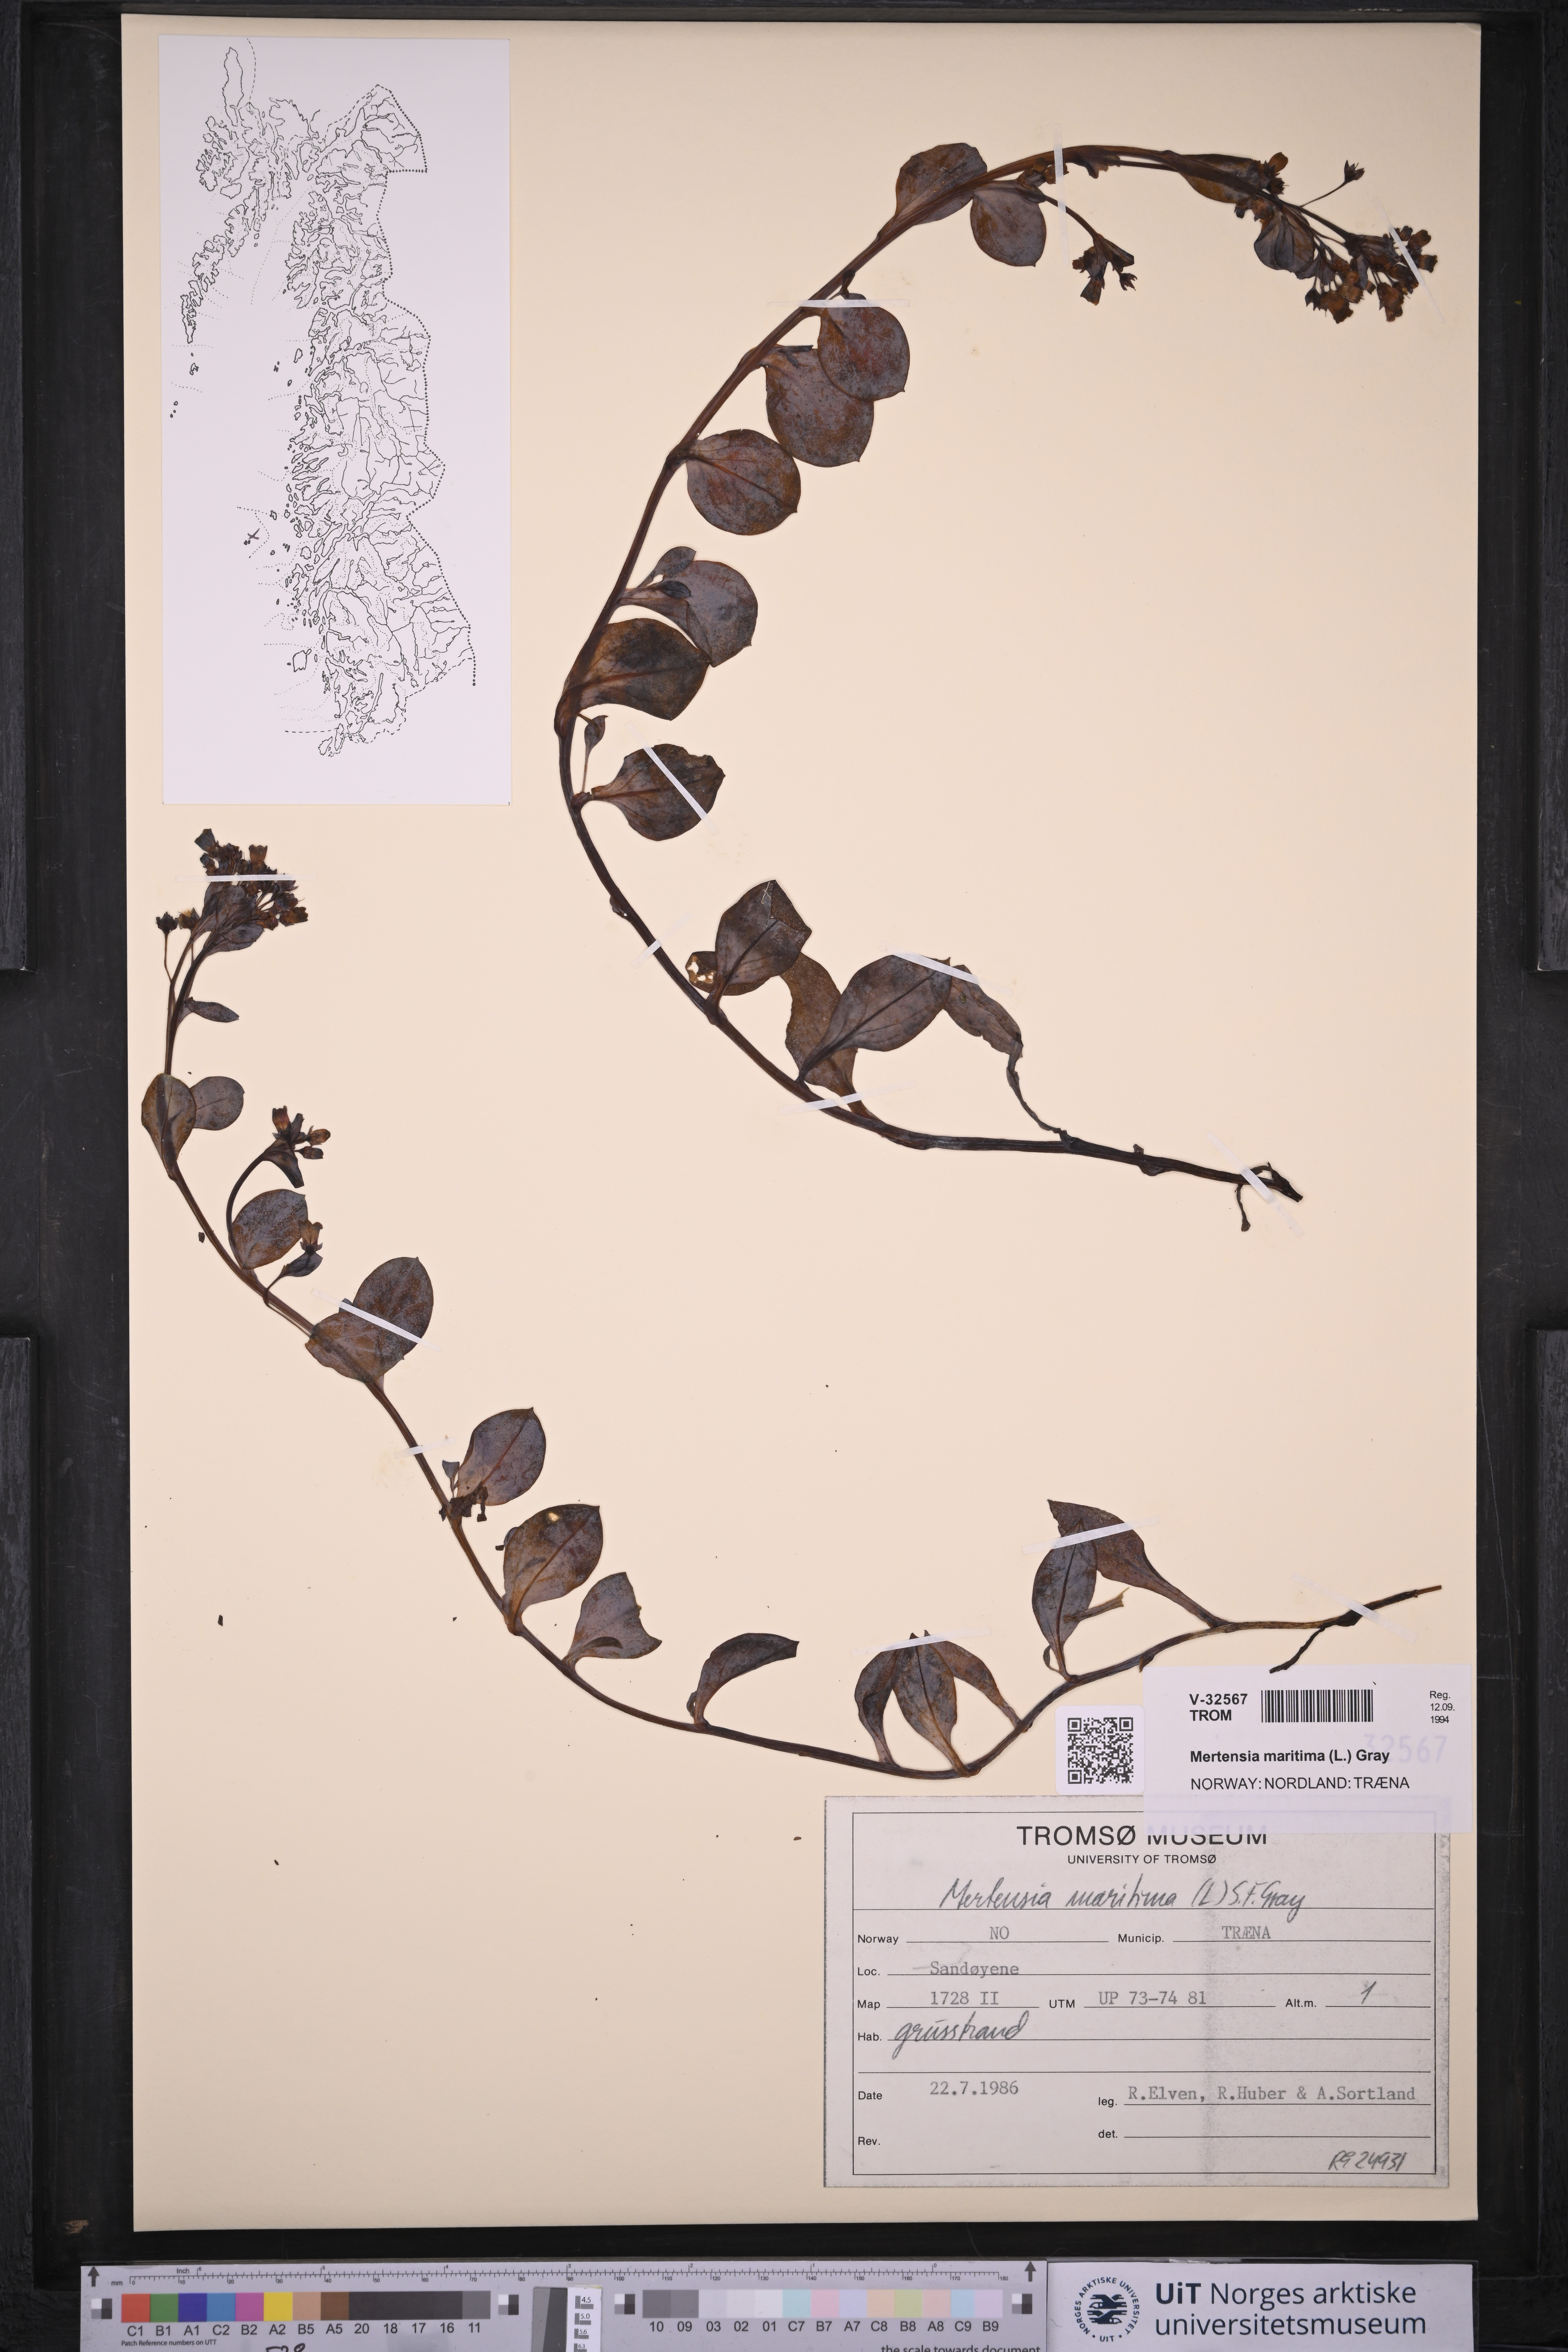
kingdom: Plantae
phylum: Tracheophyta
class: Magnoliopsida
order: Boraginales
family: Boraginaceae
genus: Mertensia
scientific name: Mertensia maritima
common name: Oysterplant
